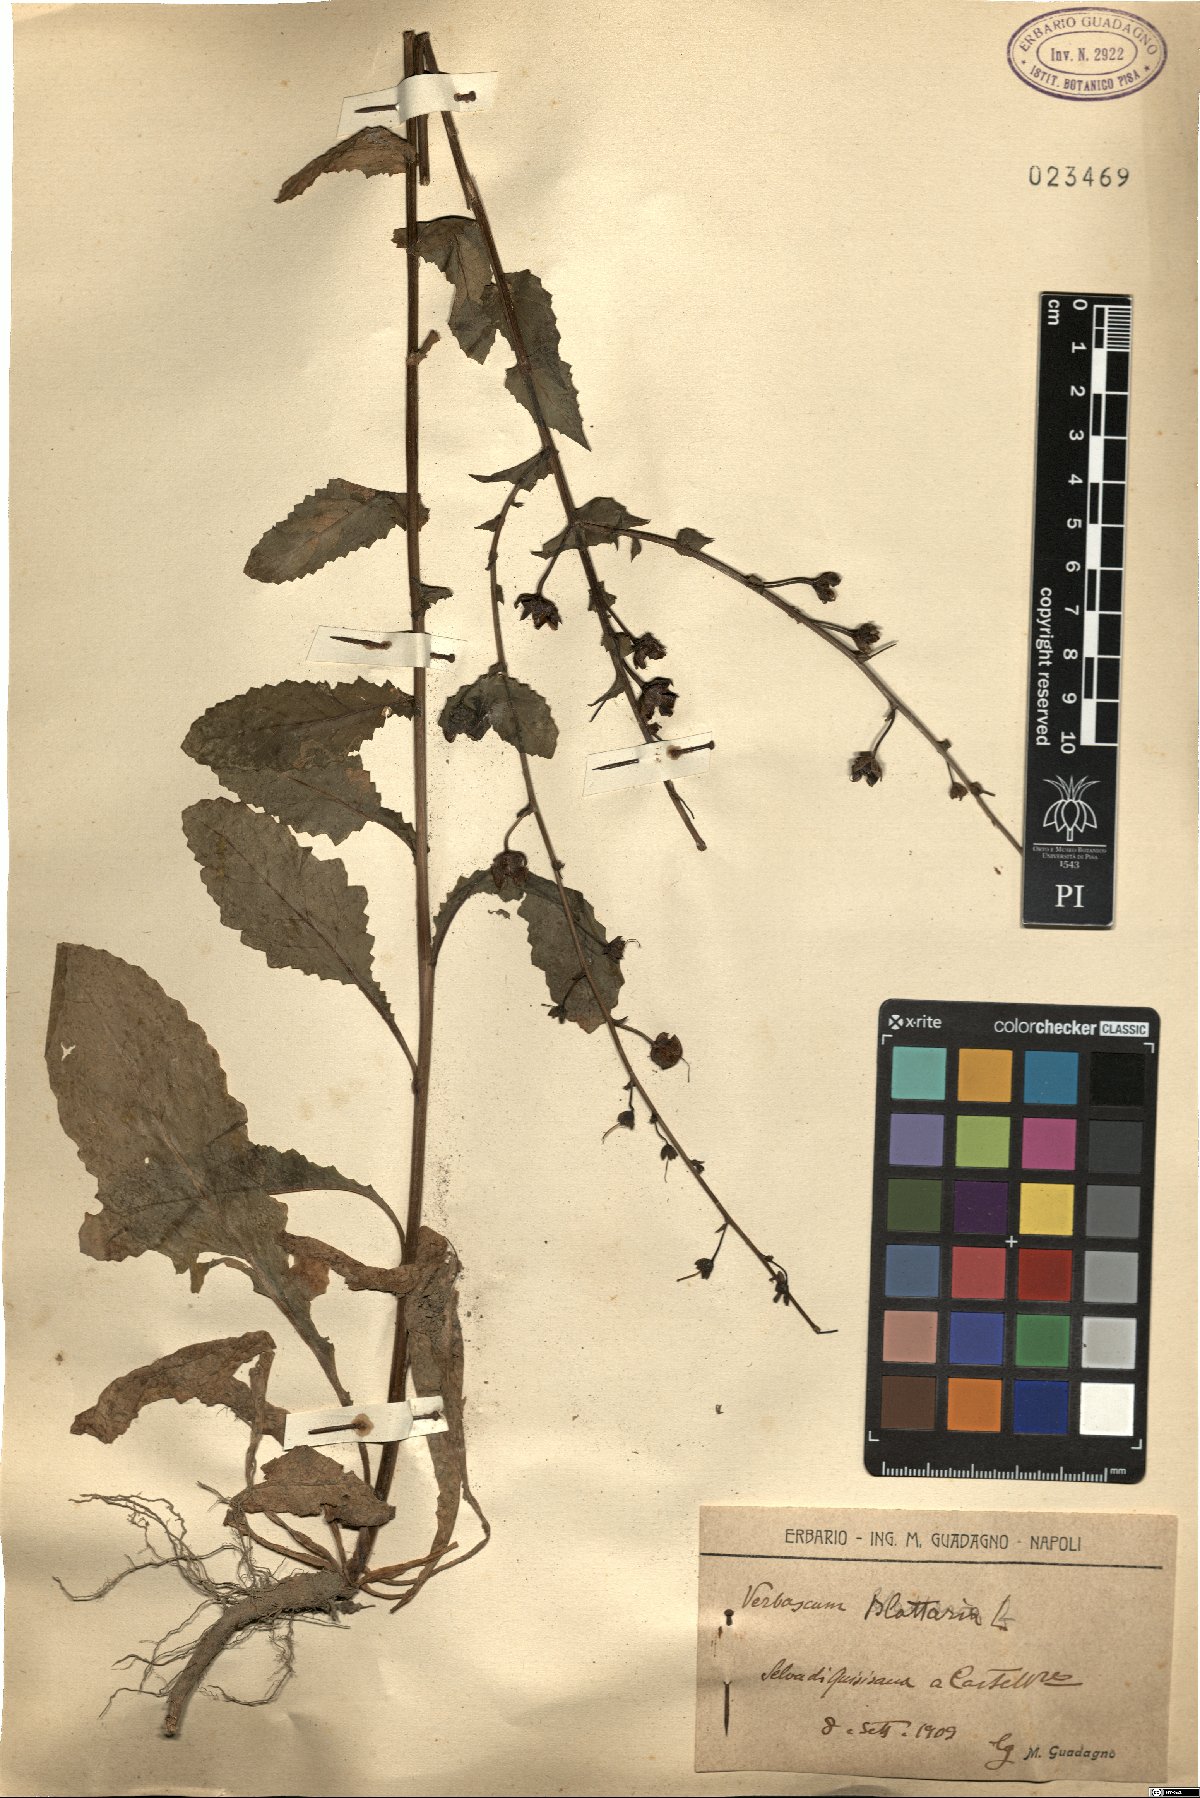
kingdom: Plantae
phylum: Tracheophyta
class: Magnoliopsida
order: Lamiales
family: Scrophulariaceae
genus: Verbascum
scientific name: Verbascum blattaria
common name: Moth mullein
